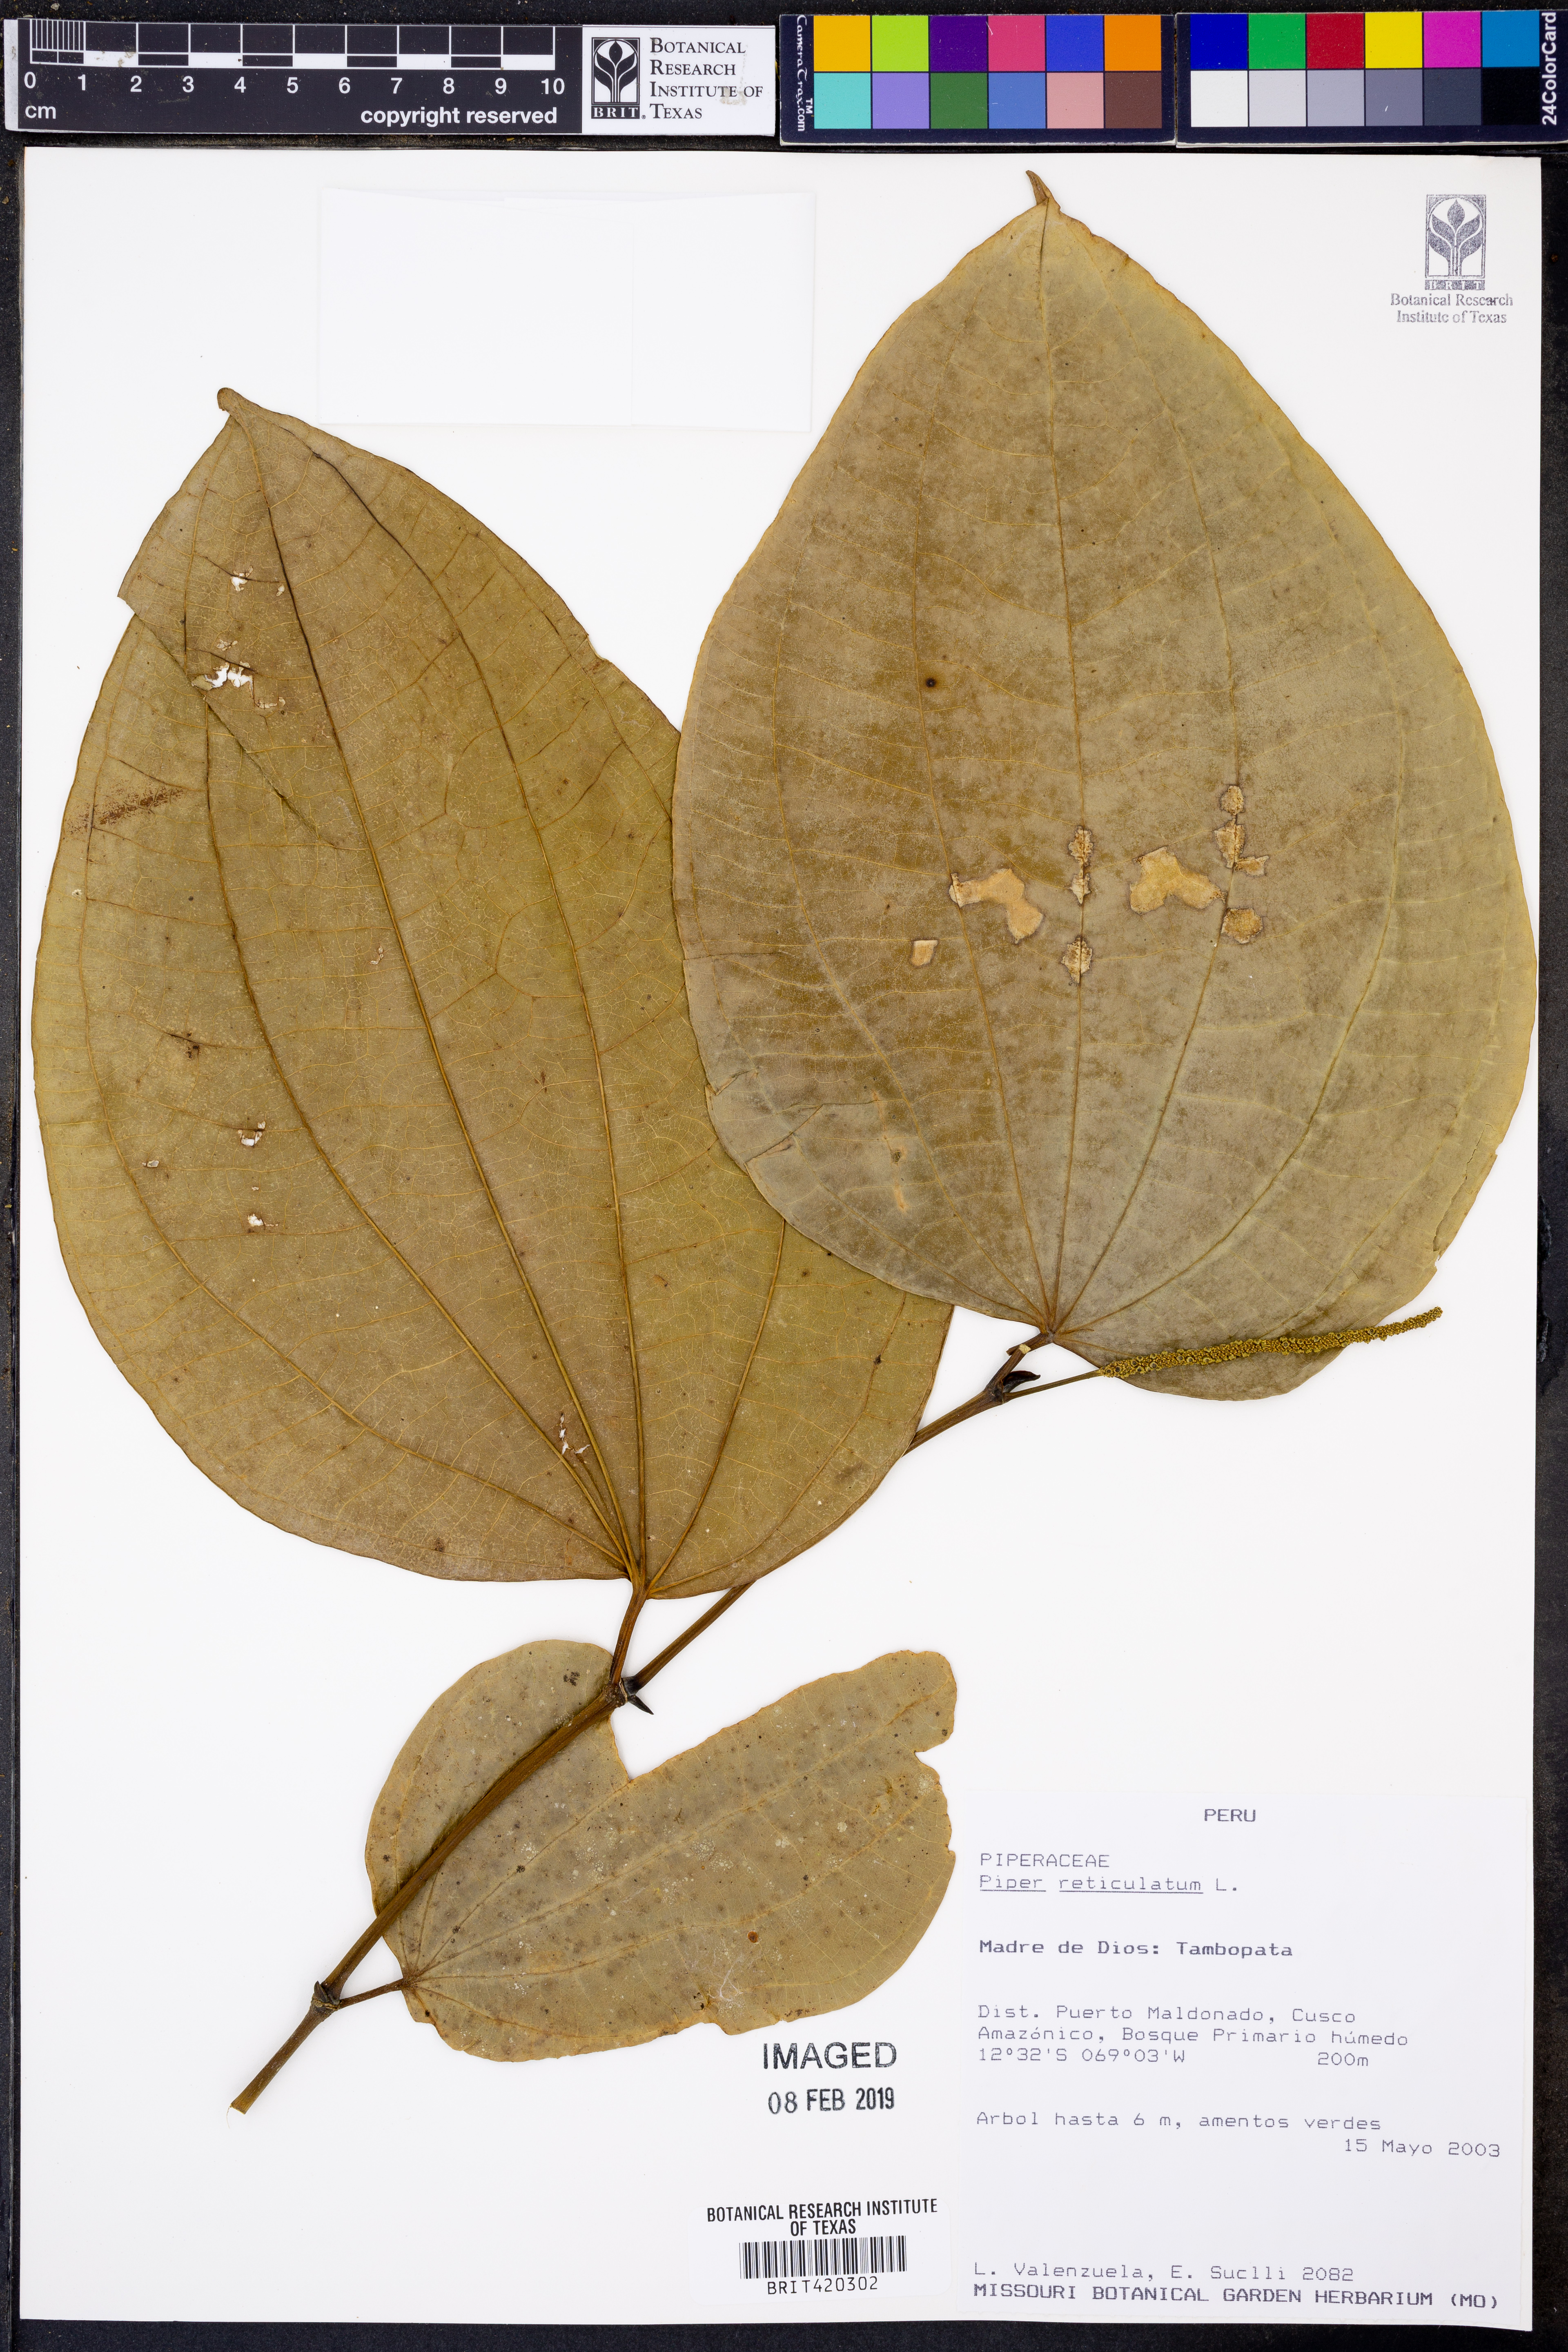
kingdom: Plantae
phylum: Tracheophyta
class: Magnoliopsida
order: Piperales
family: Piperaceae
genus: Piper
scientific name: Piper reticulatum
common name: Wild cane
